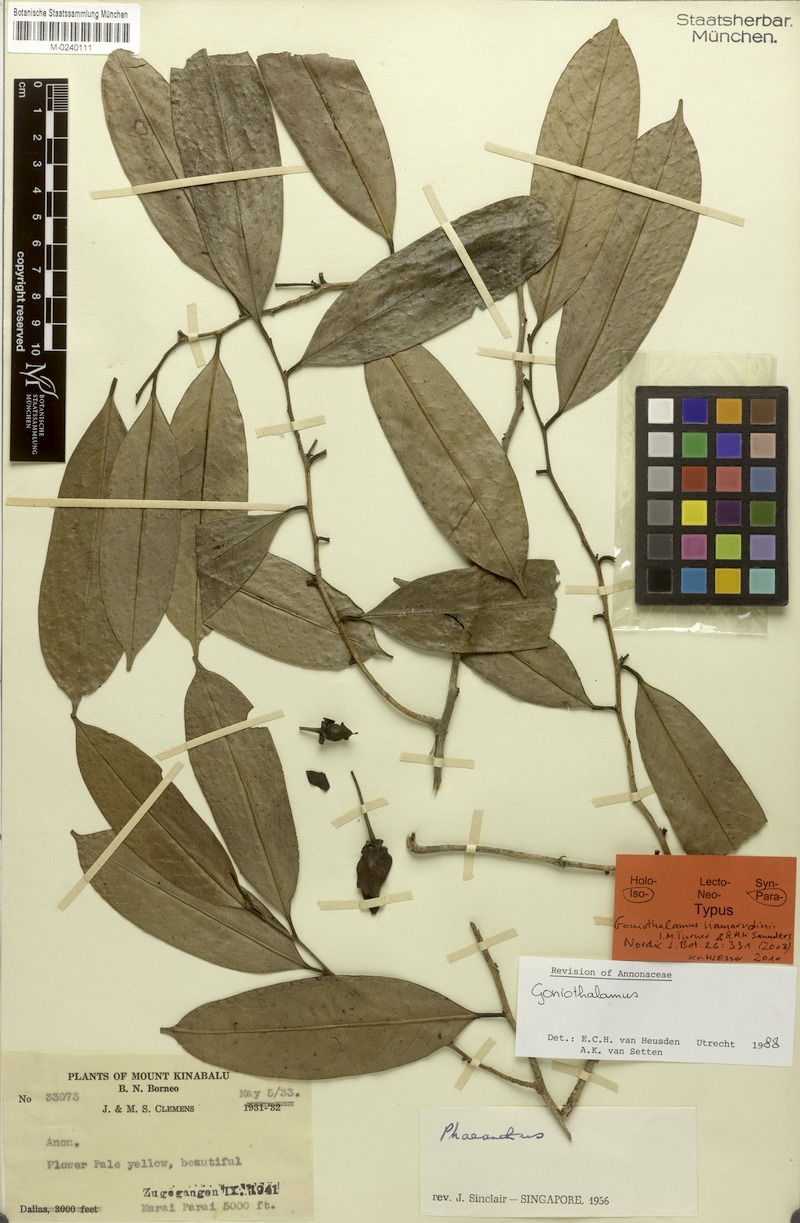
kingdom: Plantae
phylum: Tracheophyta
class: Magnoliopsida
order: Magnoliales
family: Annonaceae
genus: Goniothalamus
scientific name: Goniothalamus kamarudinii
